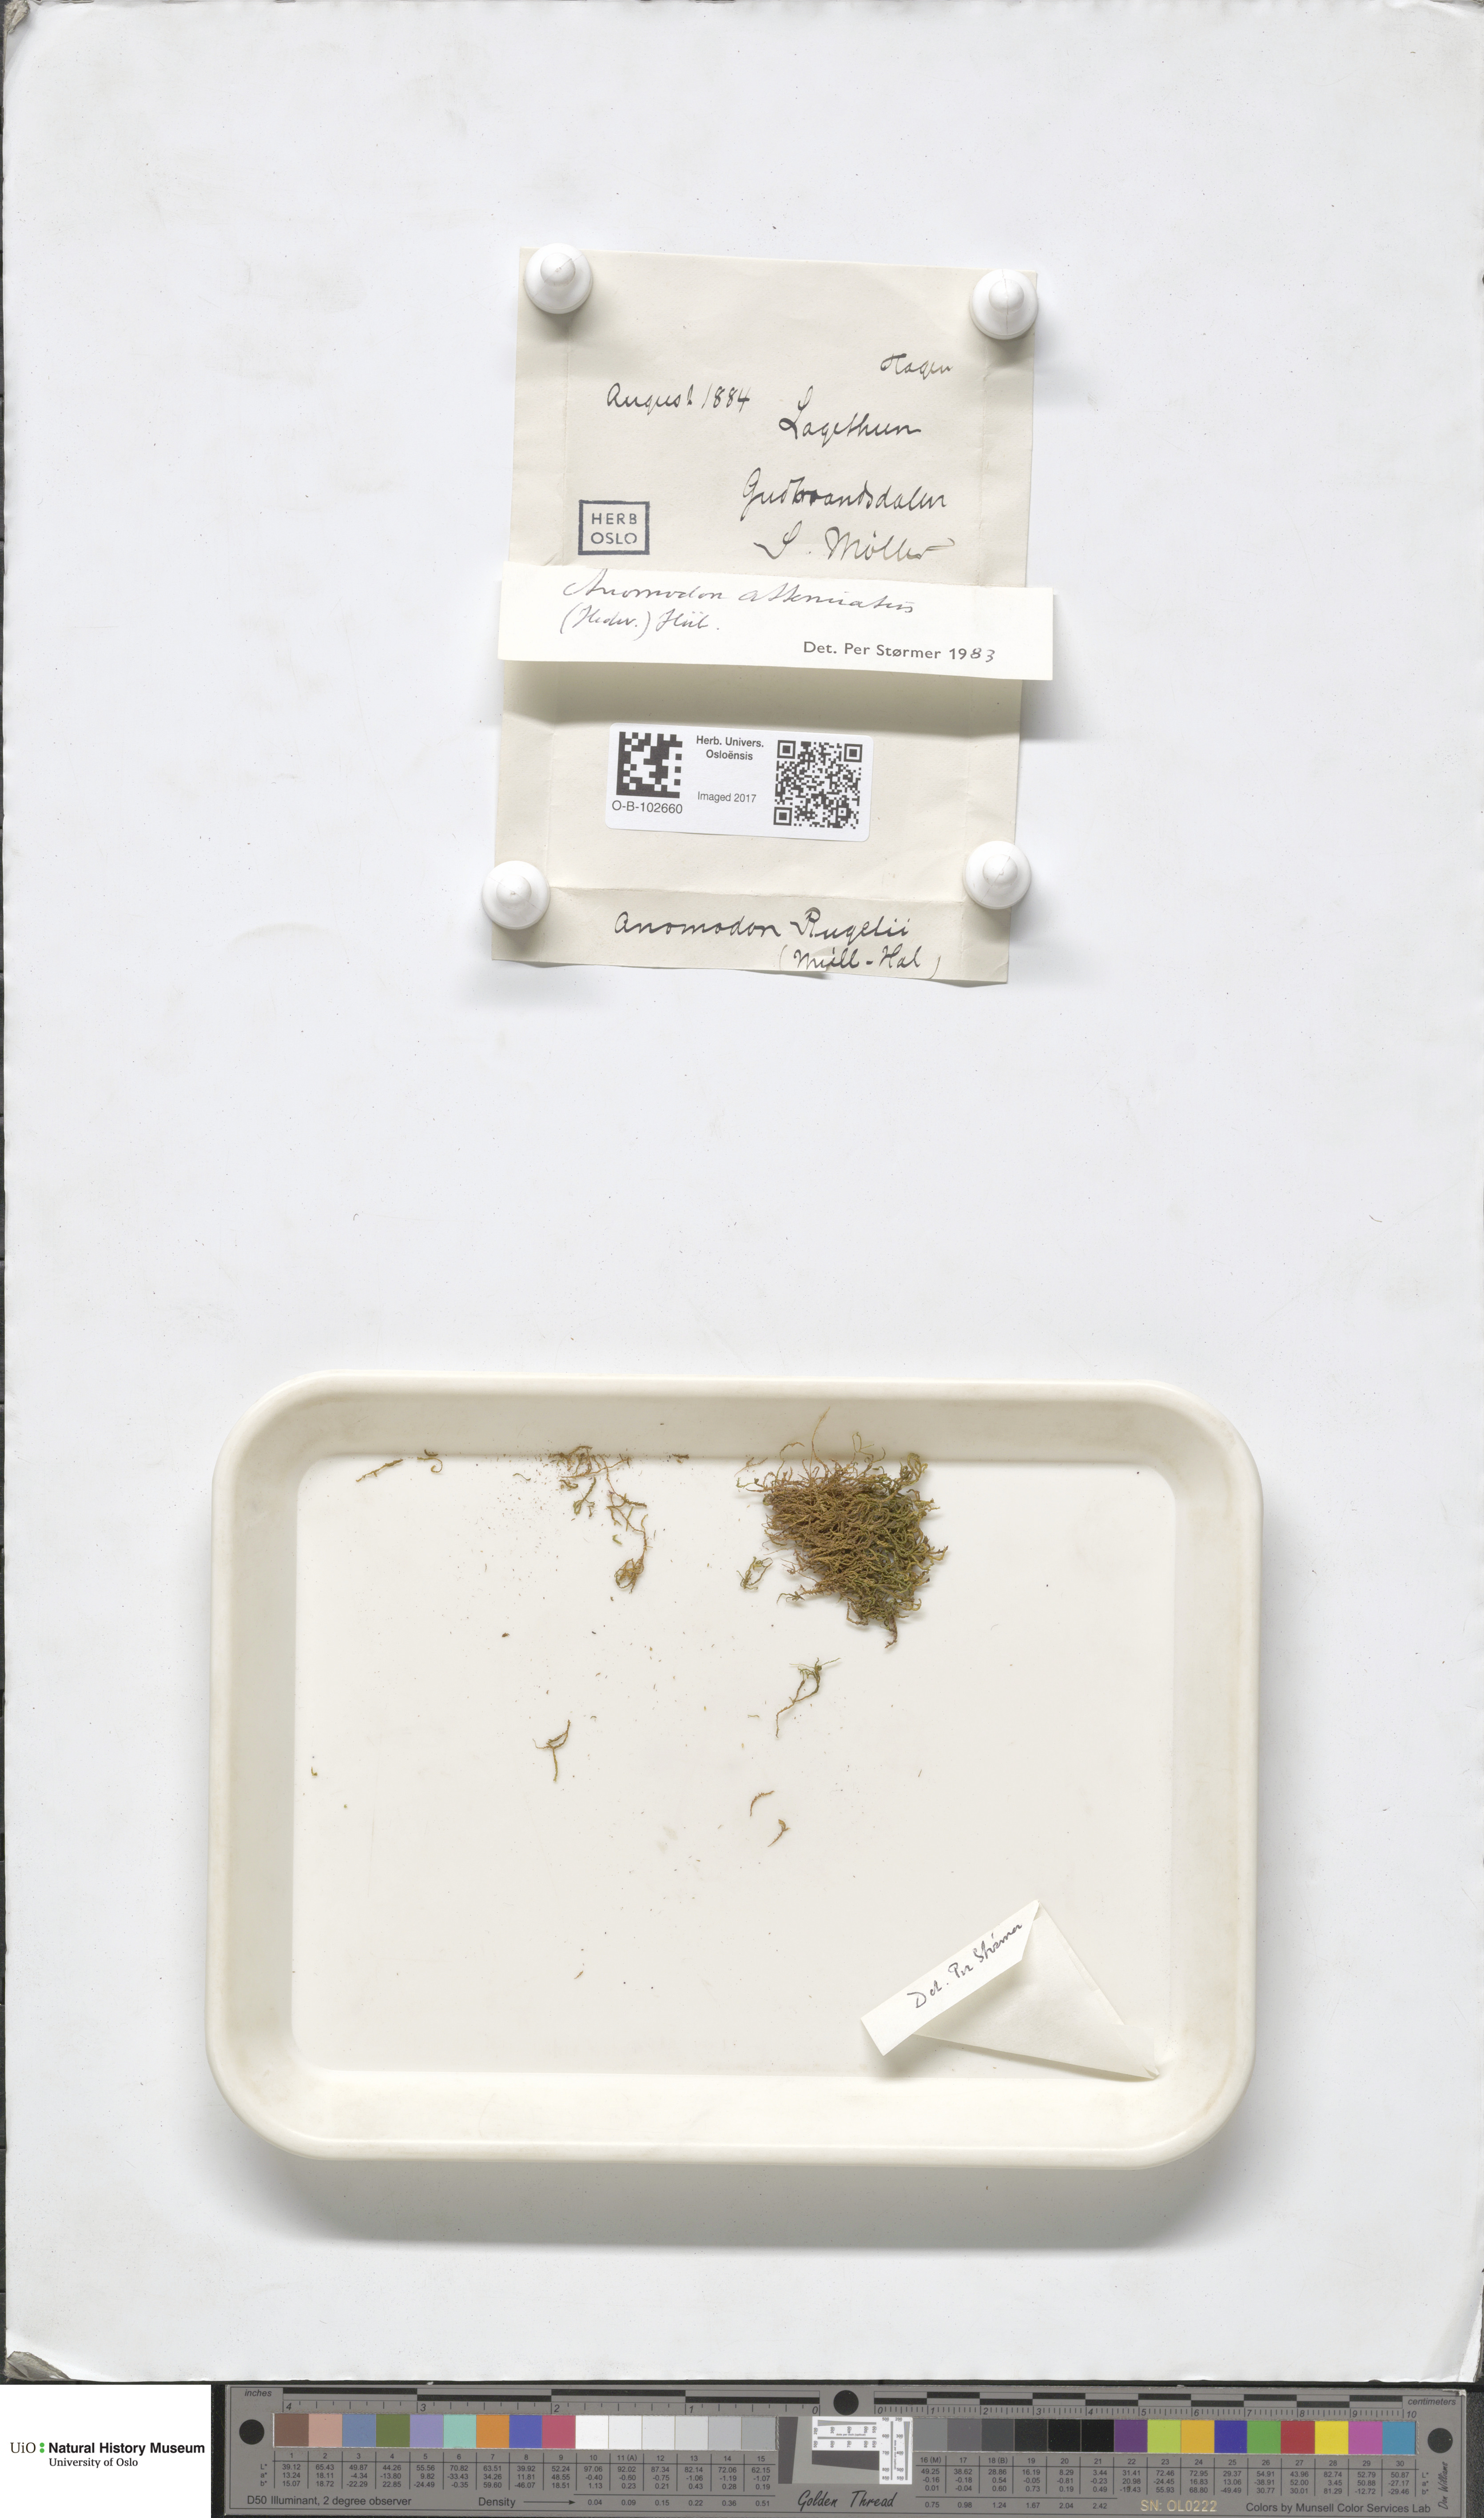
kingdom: Plantae
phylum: Bryophyta
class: Bryopsida
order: Hypnales
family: Neckeraceae
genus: Pseudanomodon
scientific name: Pseudanomodon attenuatus
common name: Tree-skirt moss
